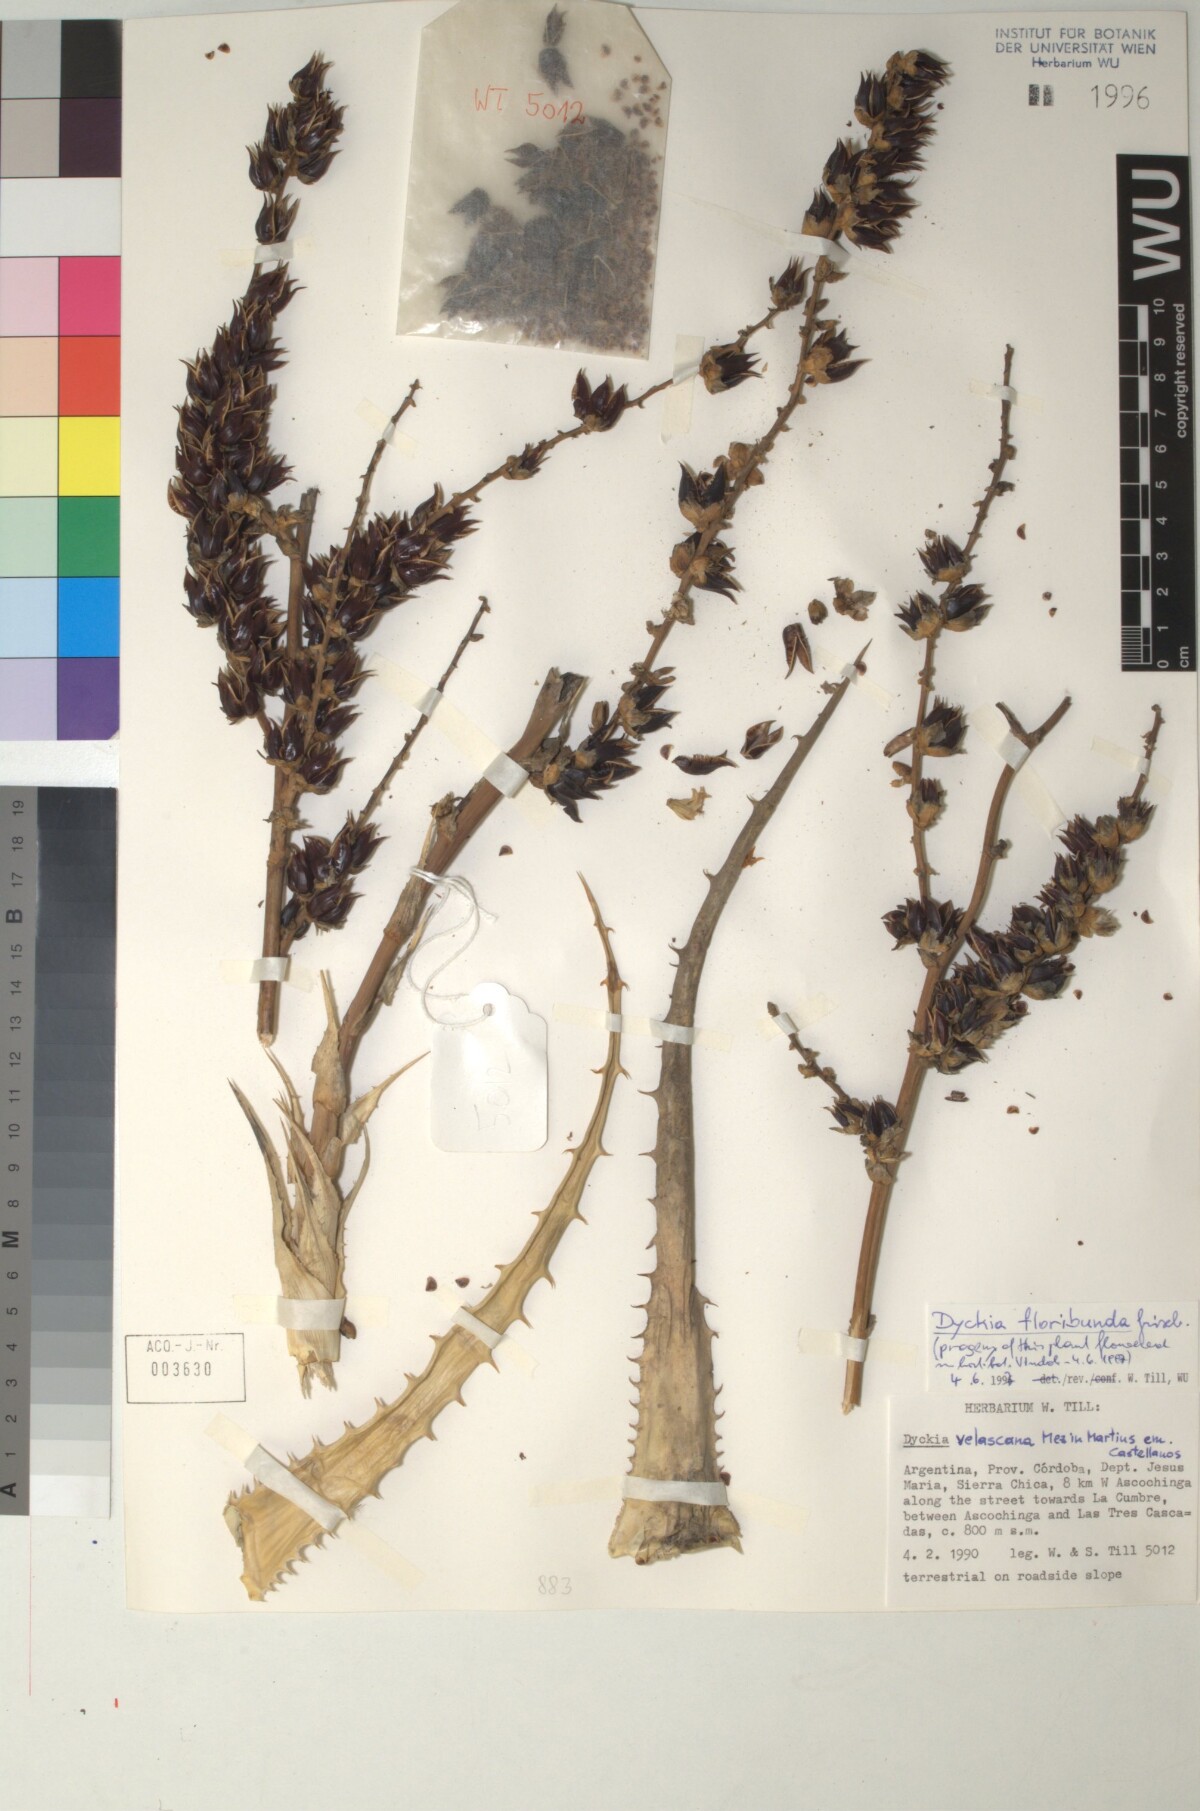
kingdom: Plantae
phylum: Tracheophyta
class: Liliopsida
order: Poales
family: Bromeliaceae
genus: Dyckia
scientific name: Dyckia floribunda
